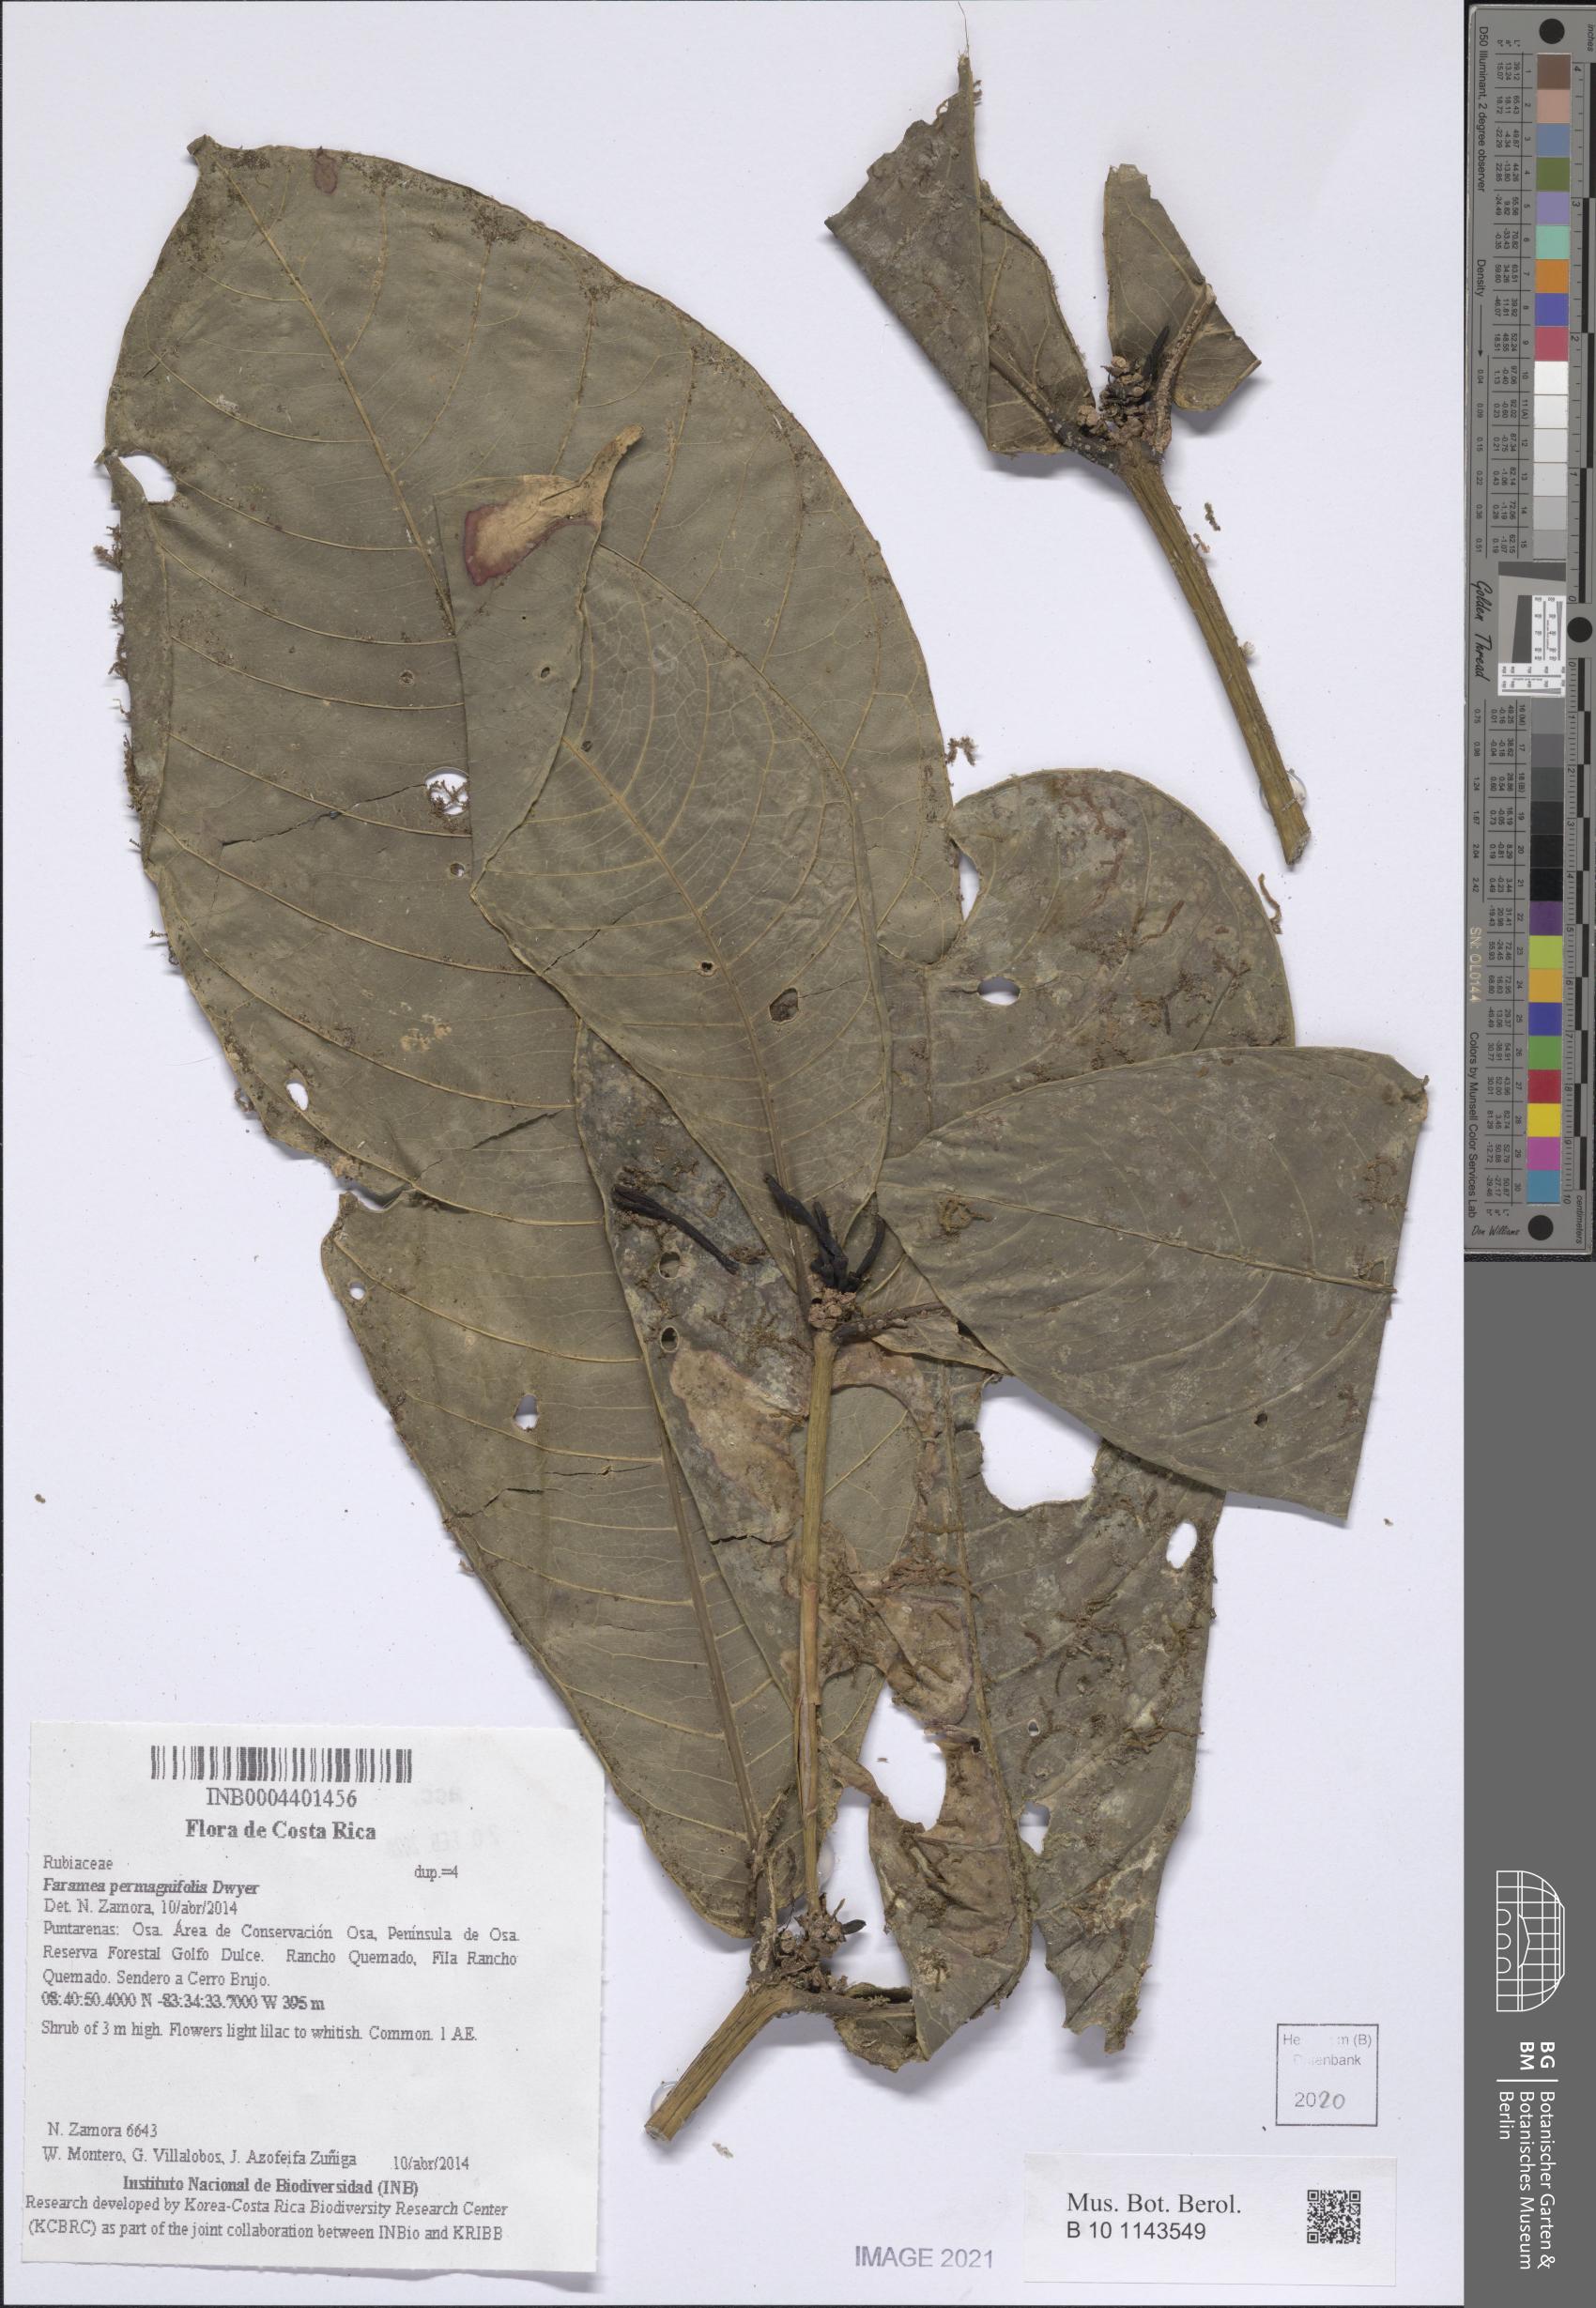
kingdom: Plantae
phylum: Tracheophyta
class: Magnoliopsida
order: Gentianales
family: Rubiaceae
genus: Faramea
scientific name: Faramea permagnifolia
